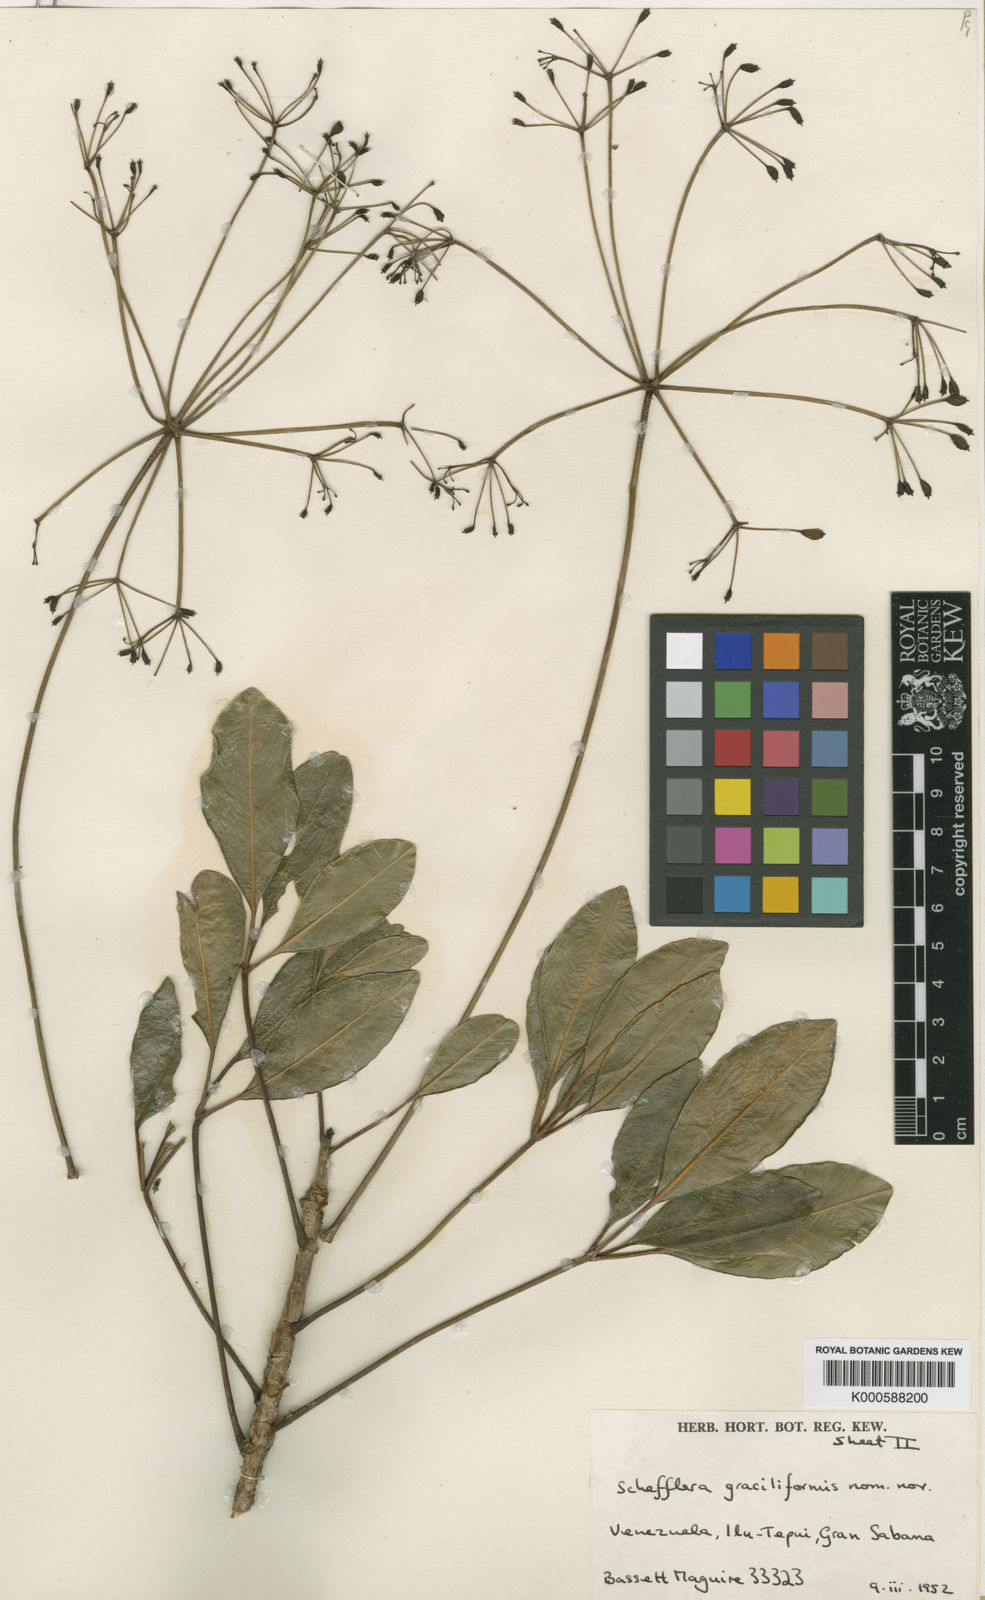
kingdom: Plantae
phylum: Tracheophyta
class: Magnoliopsida
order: Apiales
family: Araliaceae
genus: Sciodaphyllum
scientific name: Sciodaphyllum cracens
